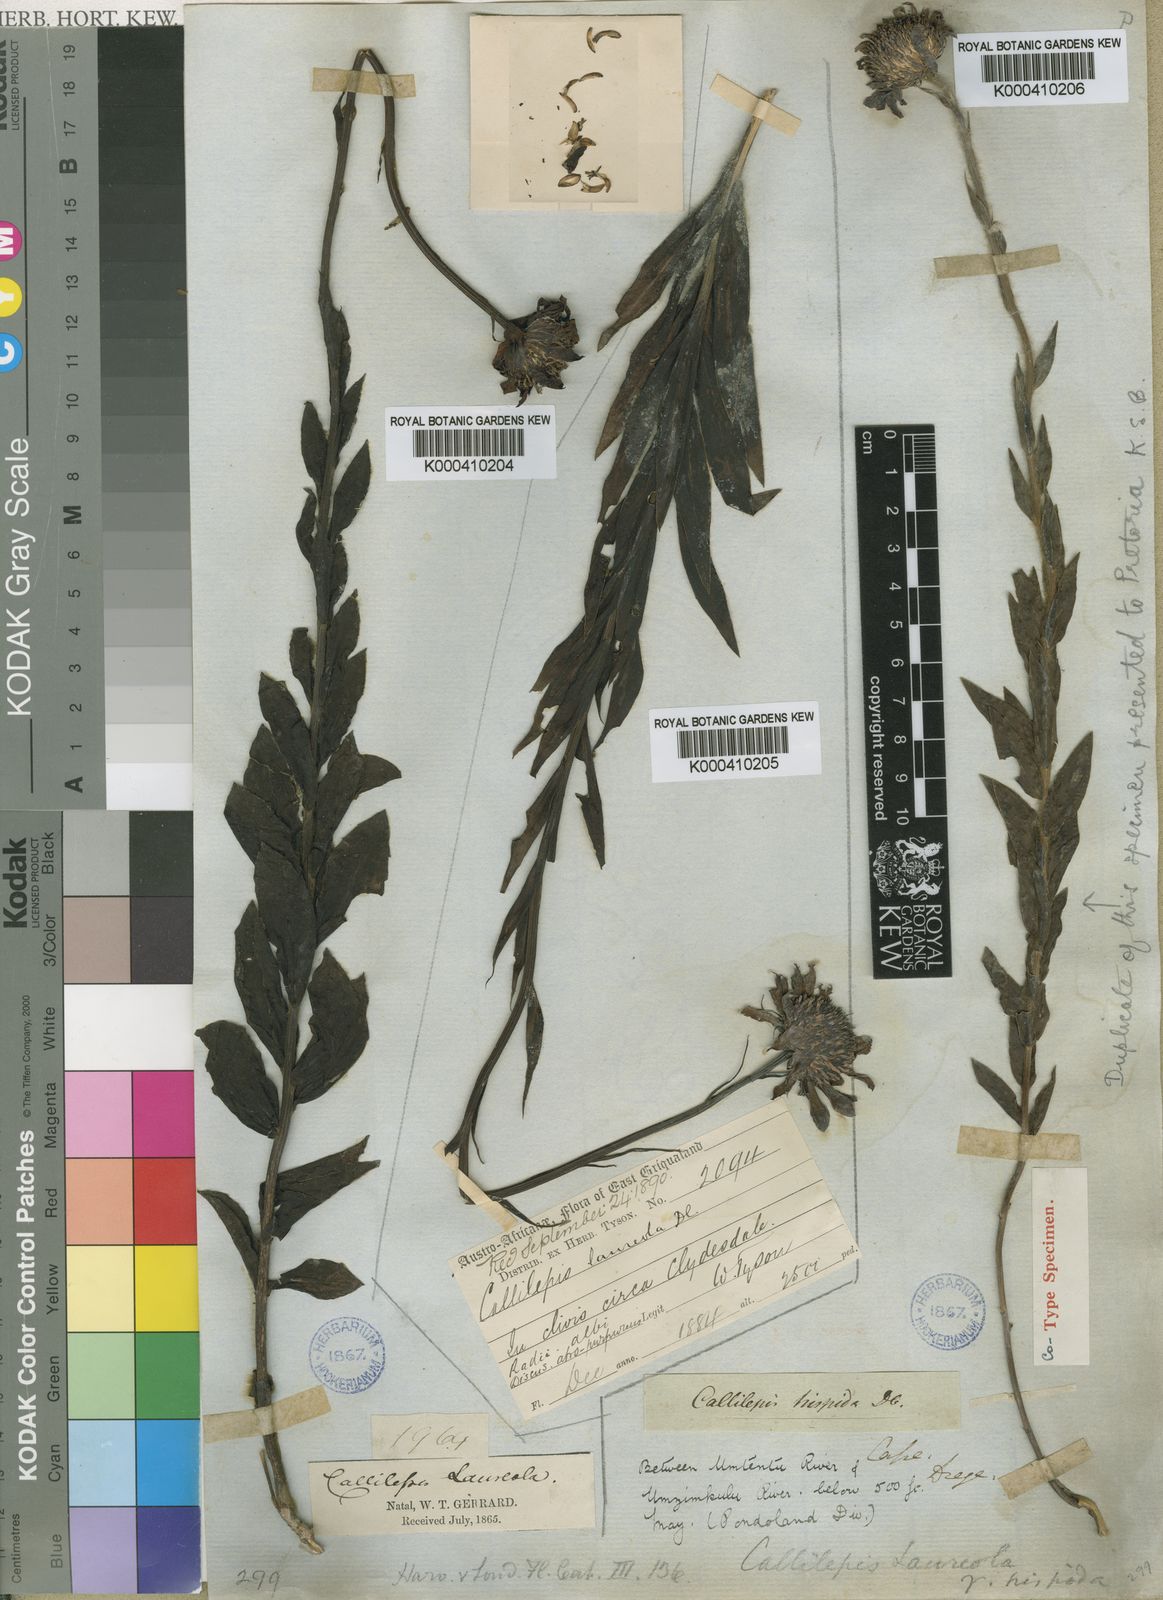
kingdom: Plantae
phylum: Tracheophyta
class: Magnoliopsida
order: Asterales
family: Asteraceae
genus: Callilepis
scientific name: Callilepis laureola
